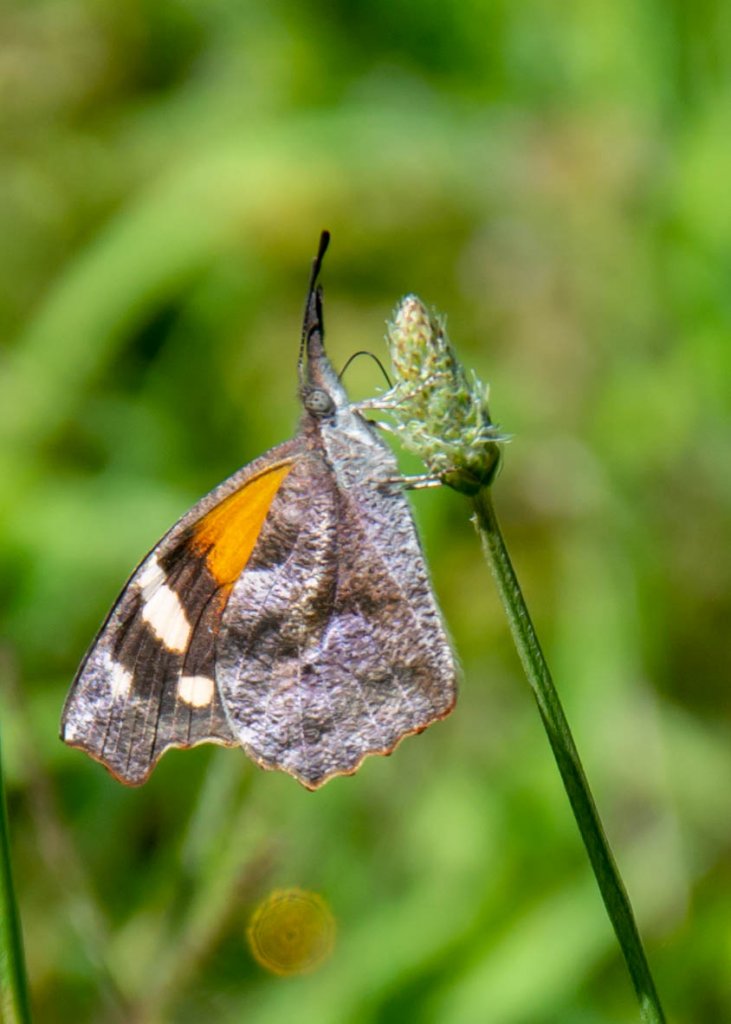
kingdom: Animalia
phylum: Arthropoda
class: Insecta
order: Lepidoptera
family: Nymphalidae
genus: Libytheana
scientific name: Libytheana carinenta
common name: American Snout
